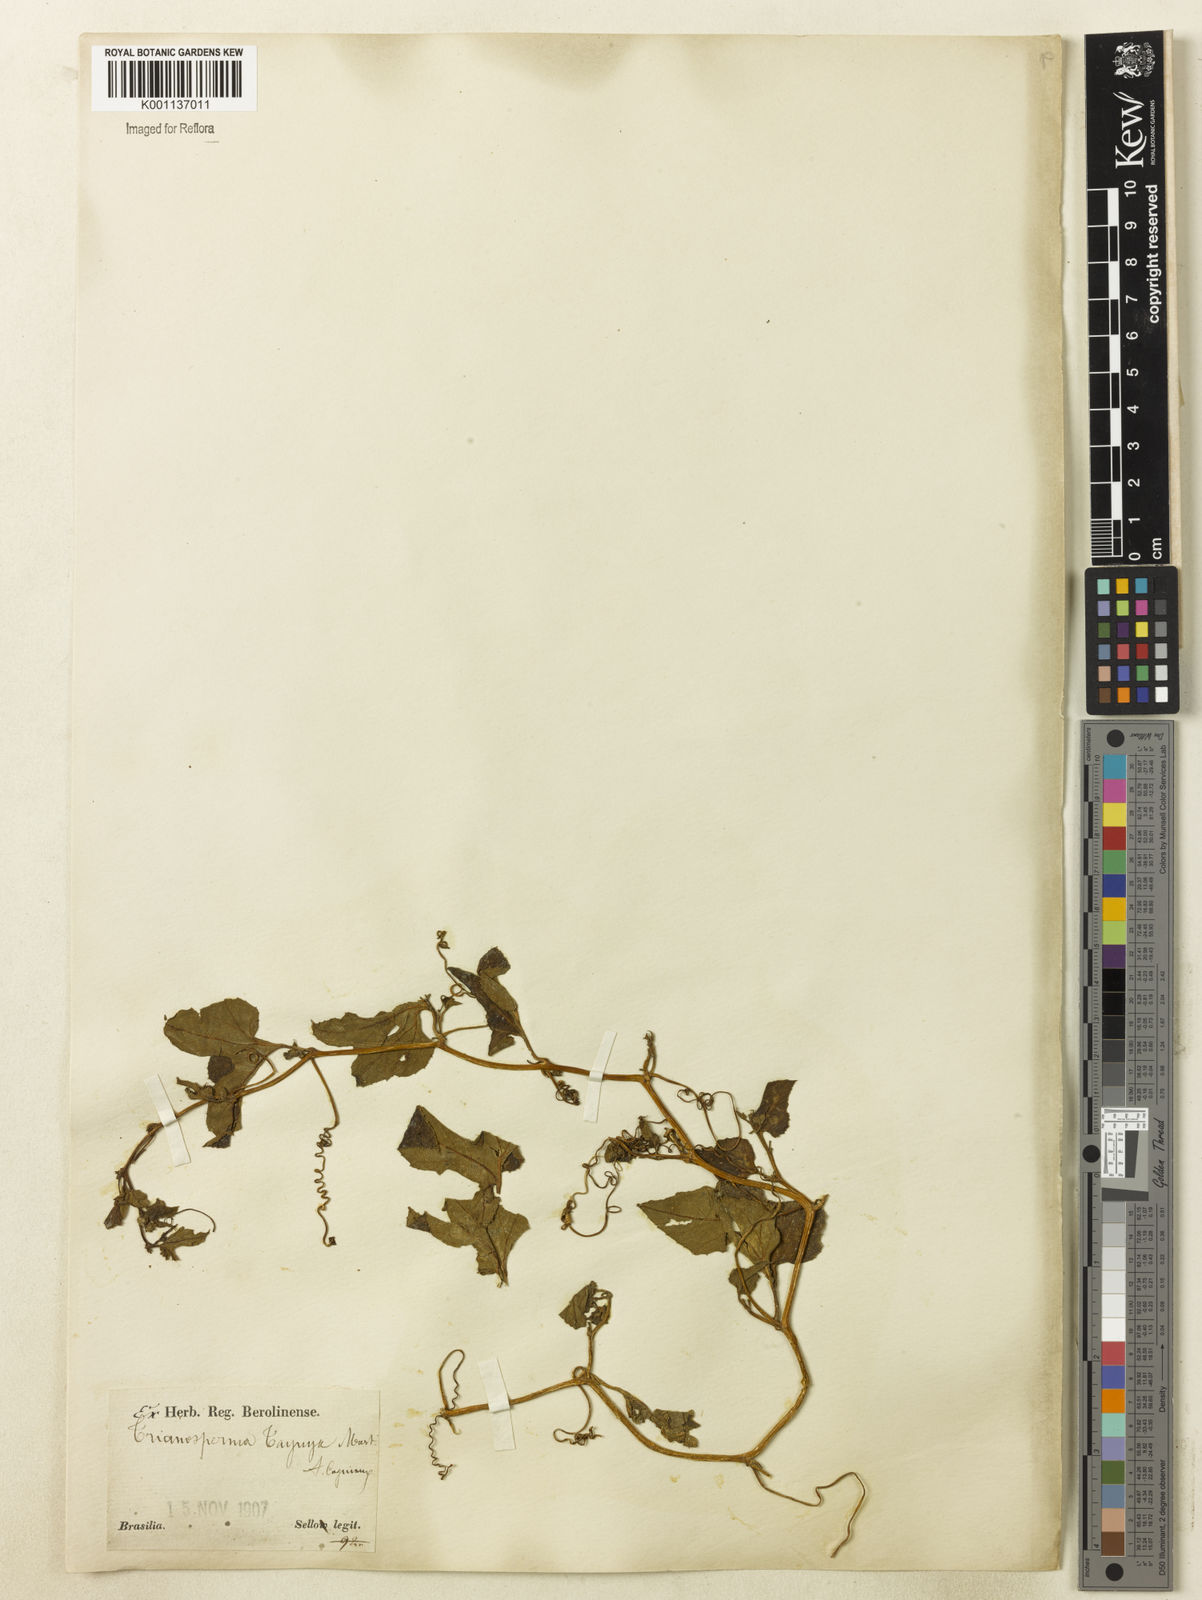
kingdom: Plantae
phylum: Tracheophyta
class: Magnoliopsida
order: Cucurbitales
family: Cucurbitaceae
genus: Cayaponia
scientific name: Cayaponia diversifolia
